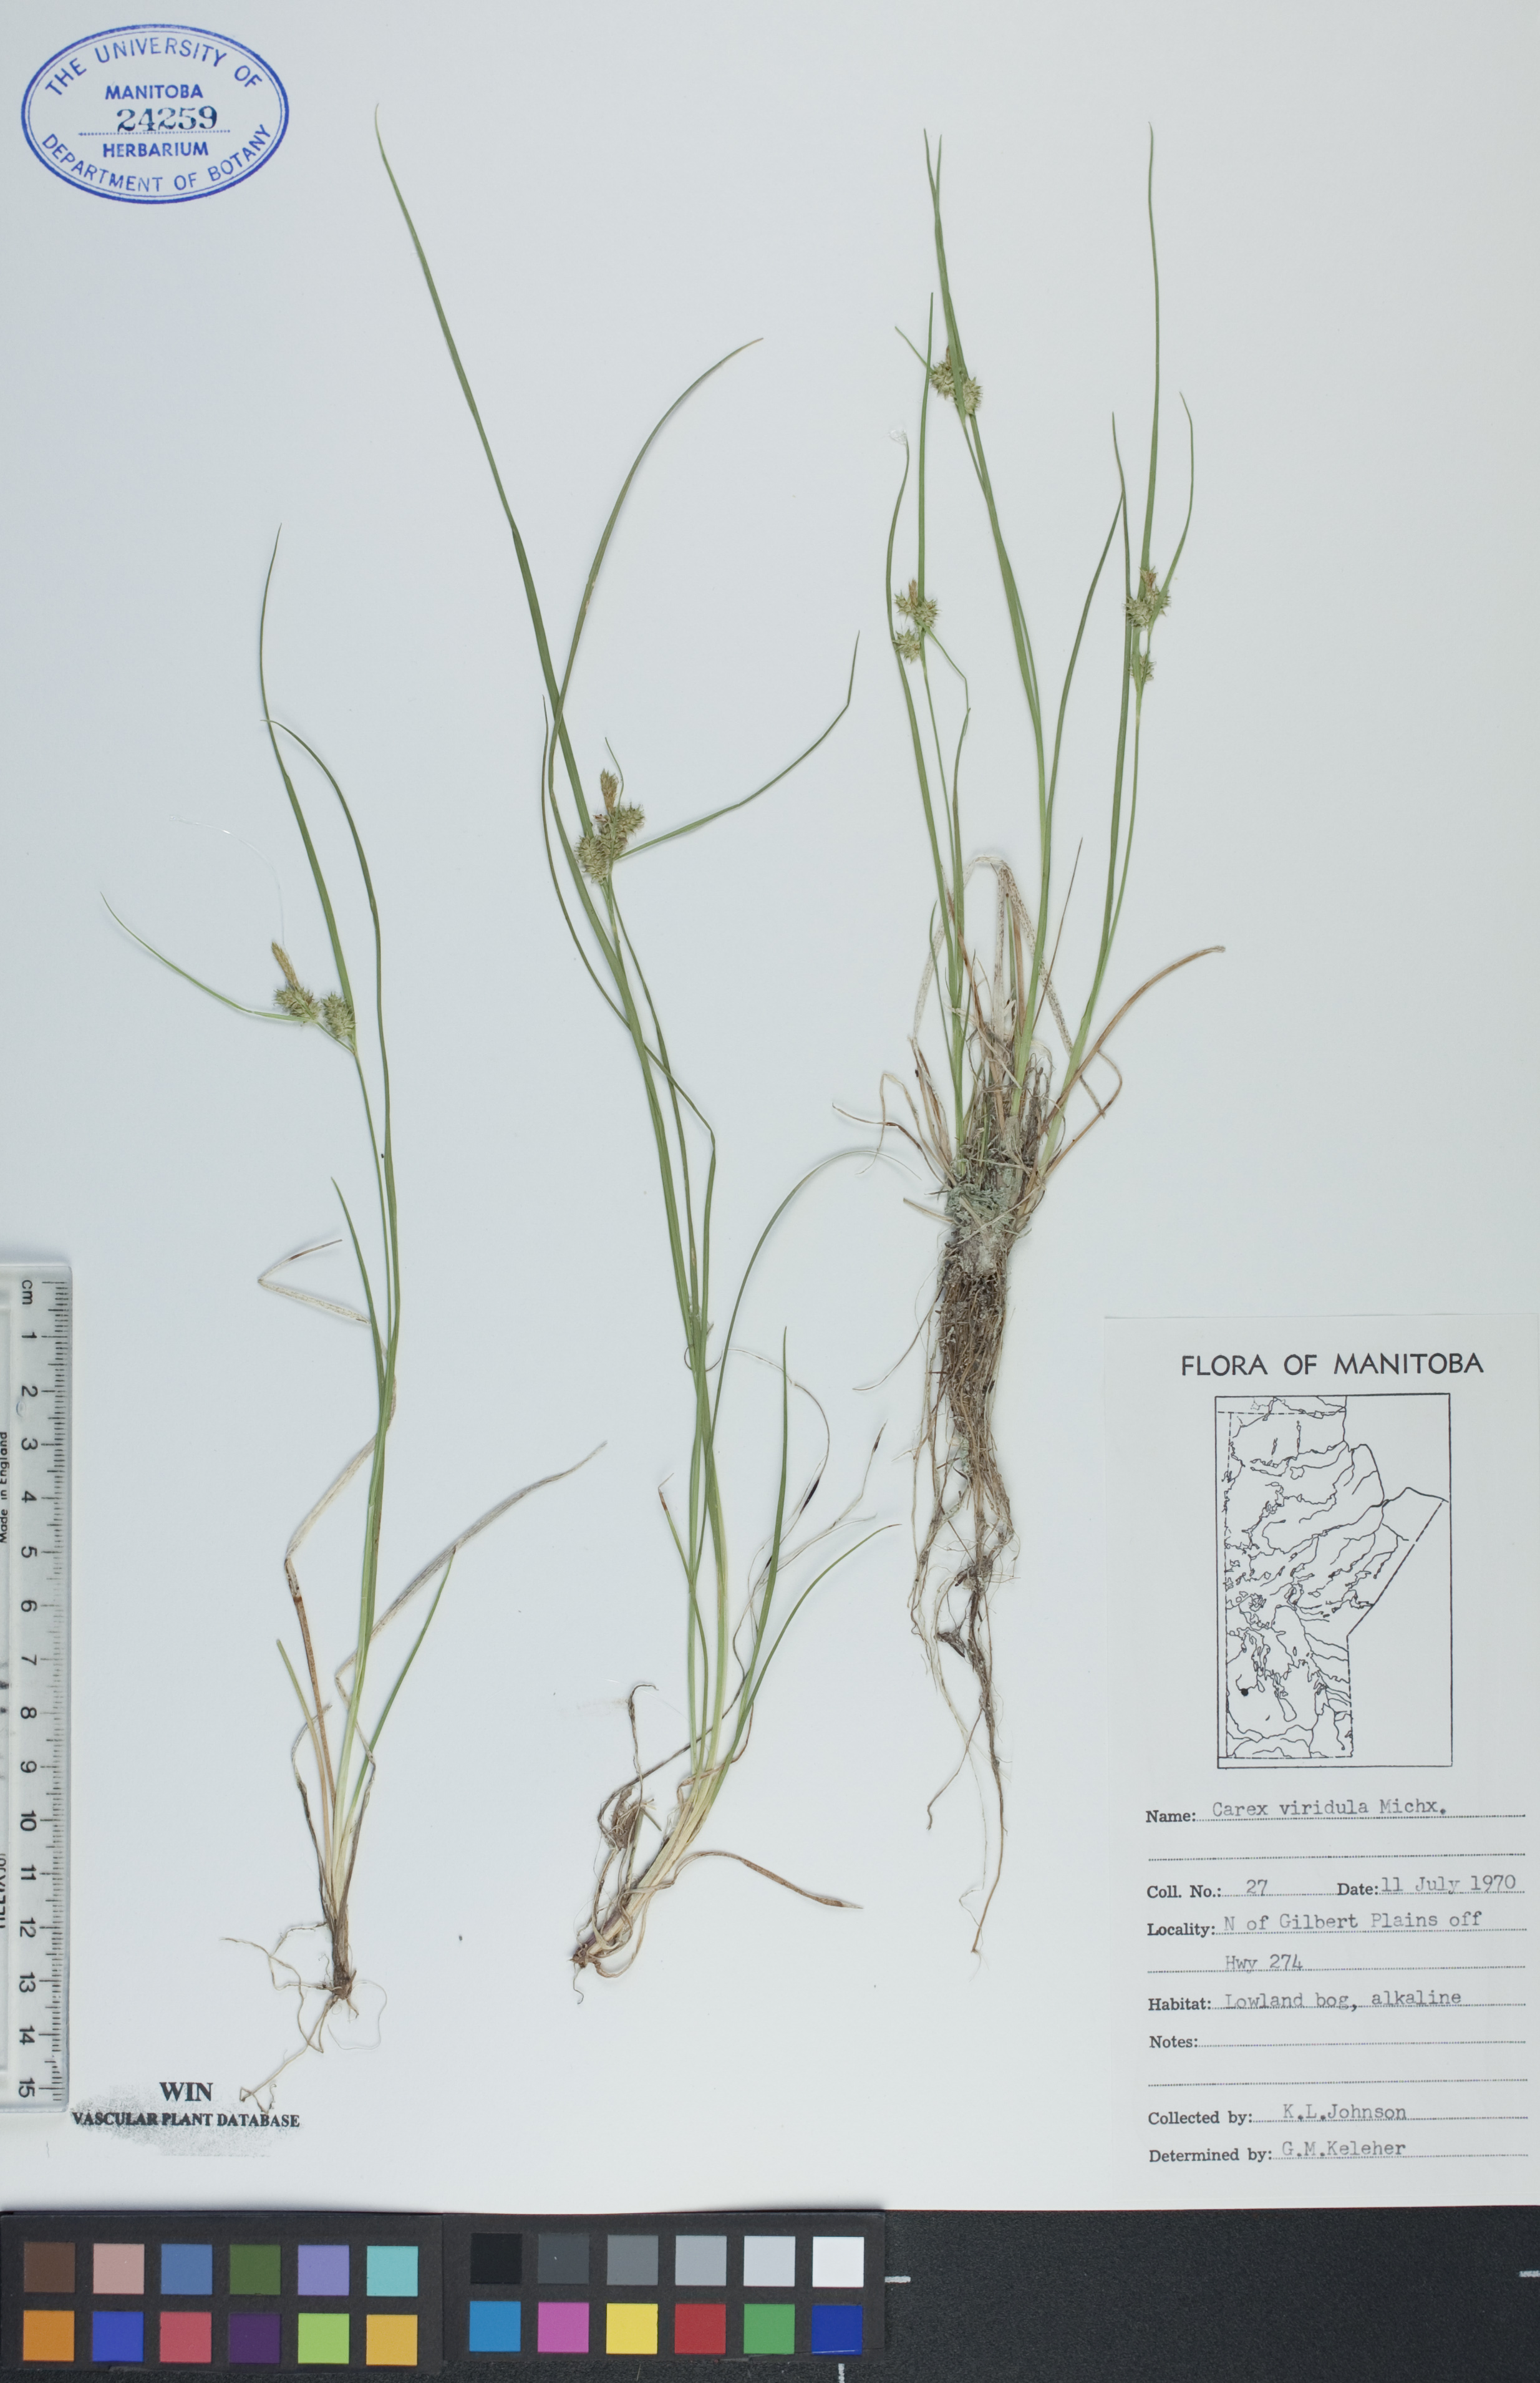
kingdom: Plantae
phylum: Tracheophyta
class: Liliopsida
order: Poales
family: Cyperaceae
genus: Carex
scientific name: Carex oederi
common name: Common & small-fruited yellow-sedge
